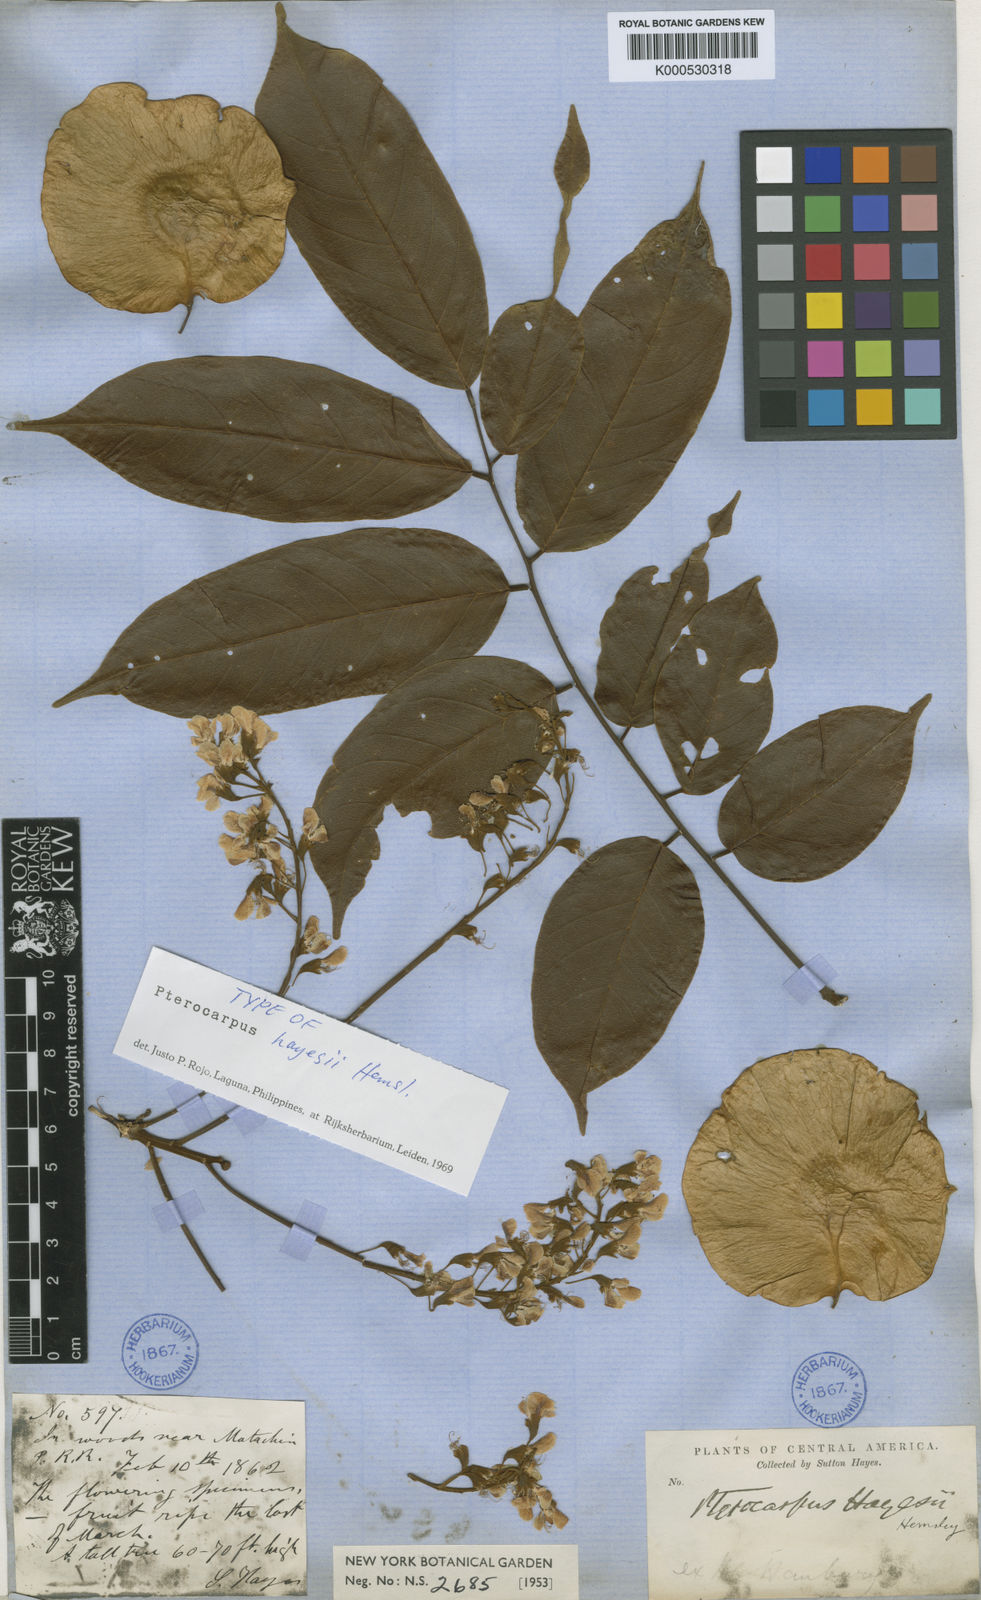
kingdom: Plantae
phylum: Tracheophyta
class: Magnoliopsida
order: Fabales
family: Fabaceae
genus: Pterocarpus
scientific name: Pterocarpus rohrii
